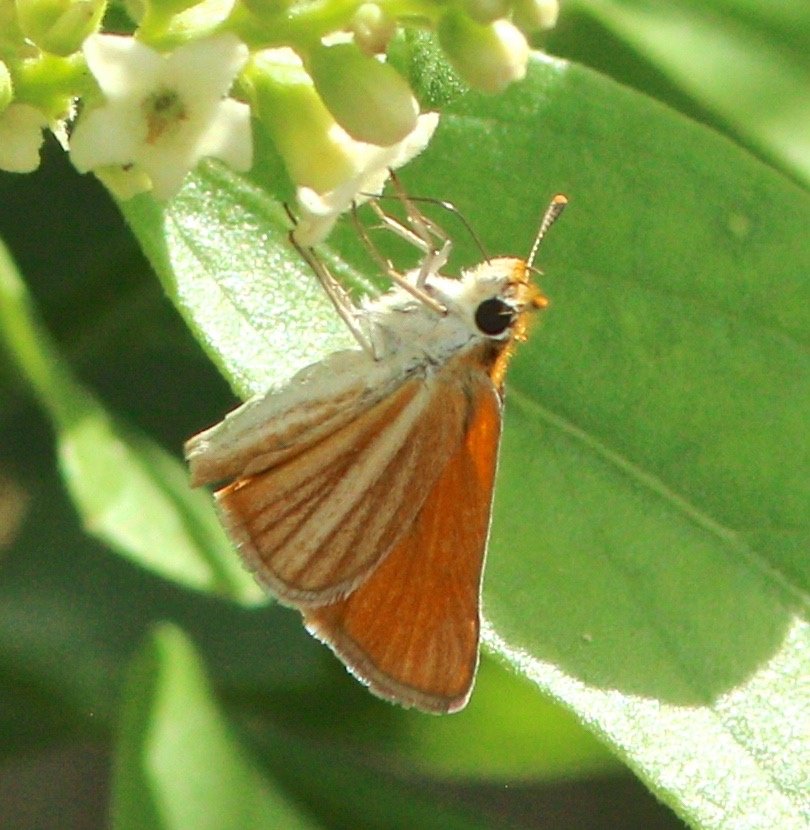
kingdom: Animalia
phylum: Arthropoda
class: Insecta
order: Lepidoptera
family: Hesperiidae
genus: Copaeodes
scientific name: Copaeodes minima
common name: Southern Skipperling
